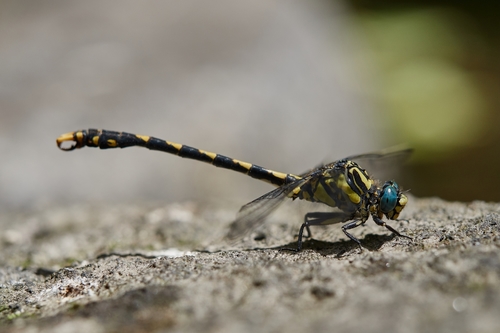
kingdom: Animalia
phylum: Arthropoda
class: Insecta
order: Odonata
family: Gomphidae
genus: Onychogomphus
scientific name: Onychogomphus uncatus
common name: Large pincertail
